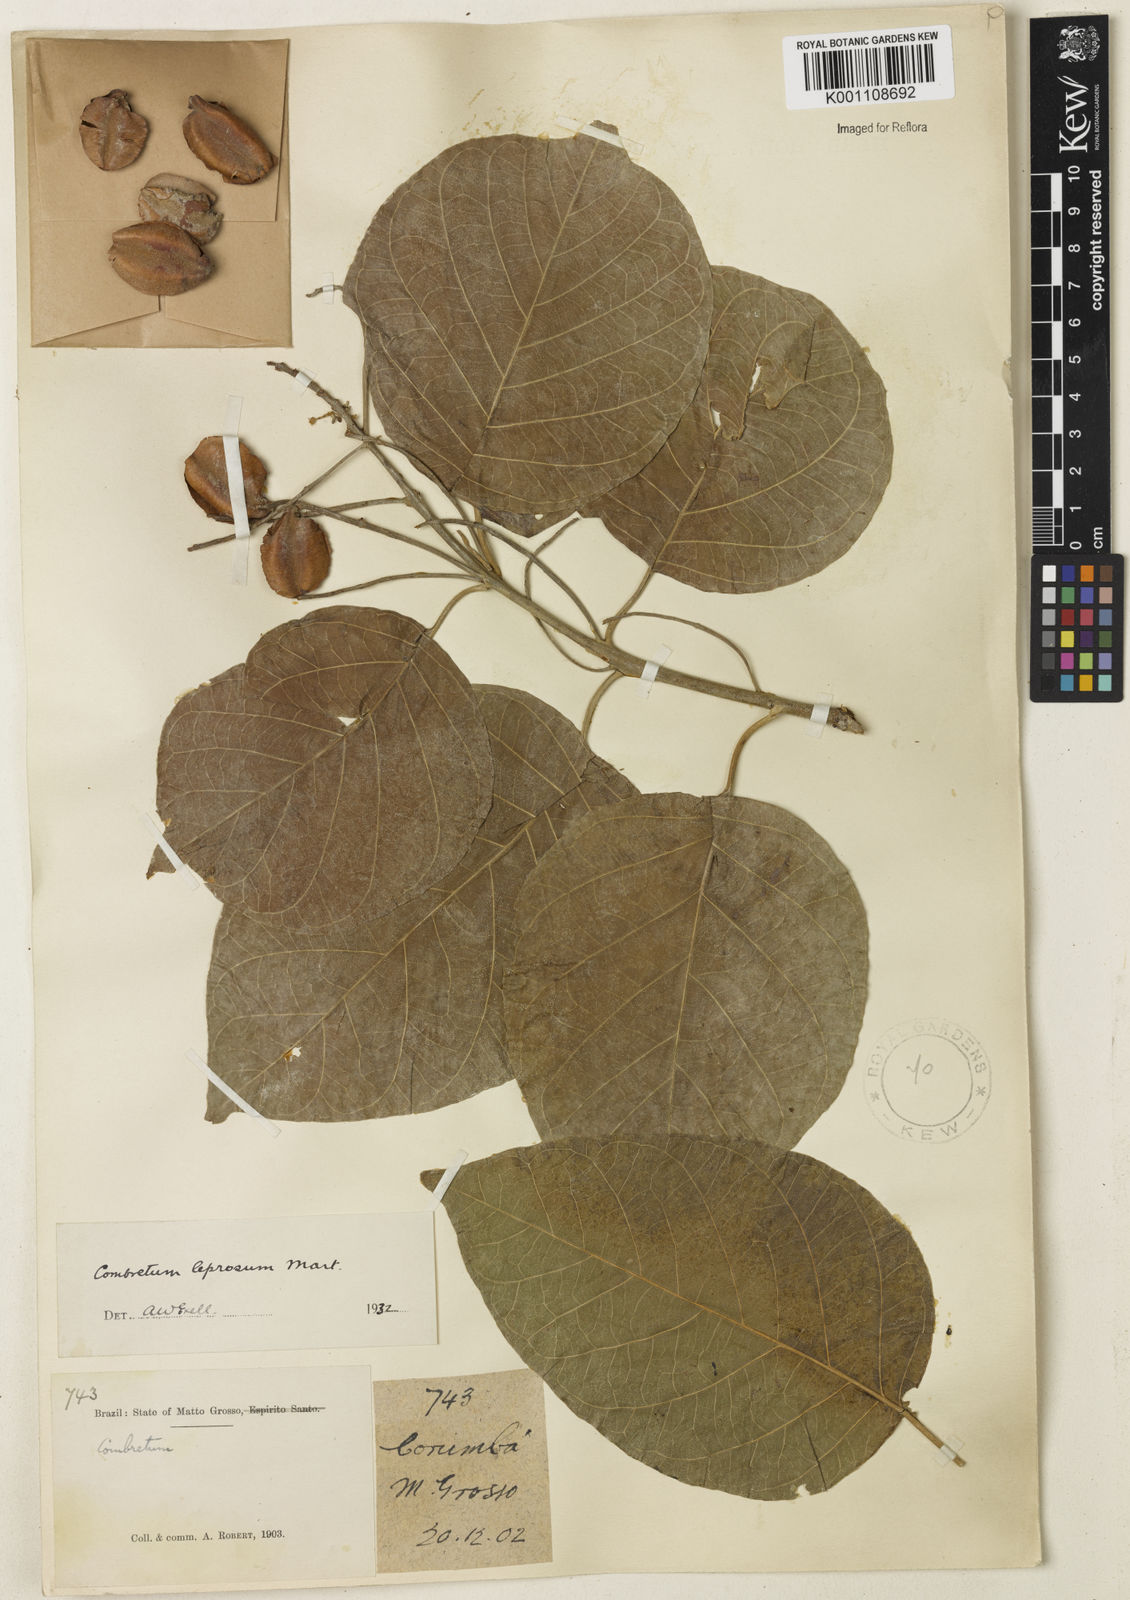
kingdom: Plantae
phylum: Tracheophyta
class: Magnoliopsida
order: Myrtales
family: Combretaceae
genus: Combretum
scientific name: Combretum leprosum
